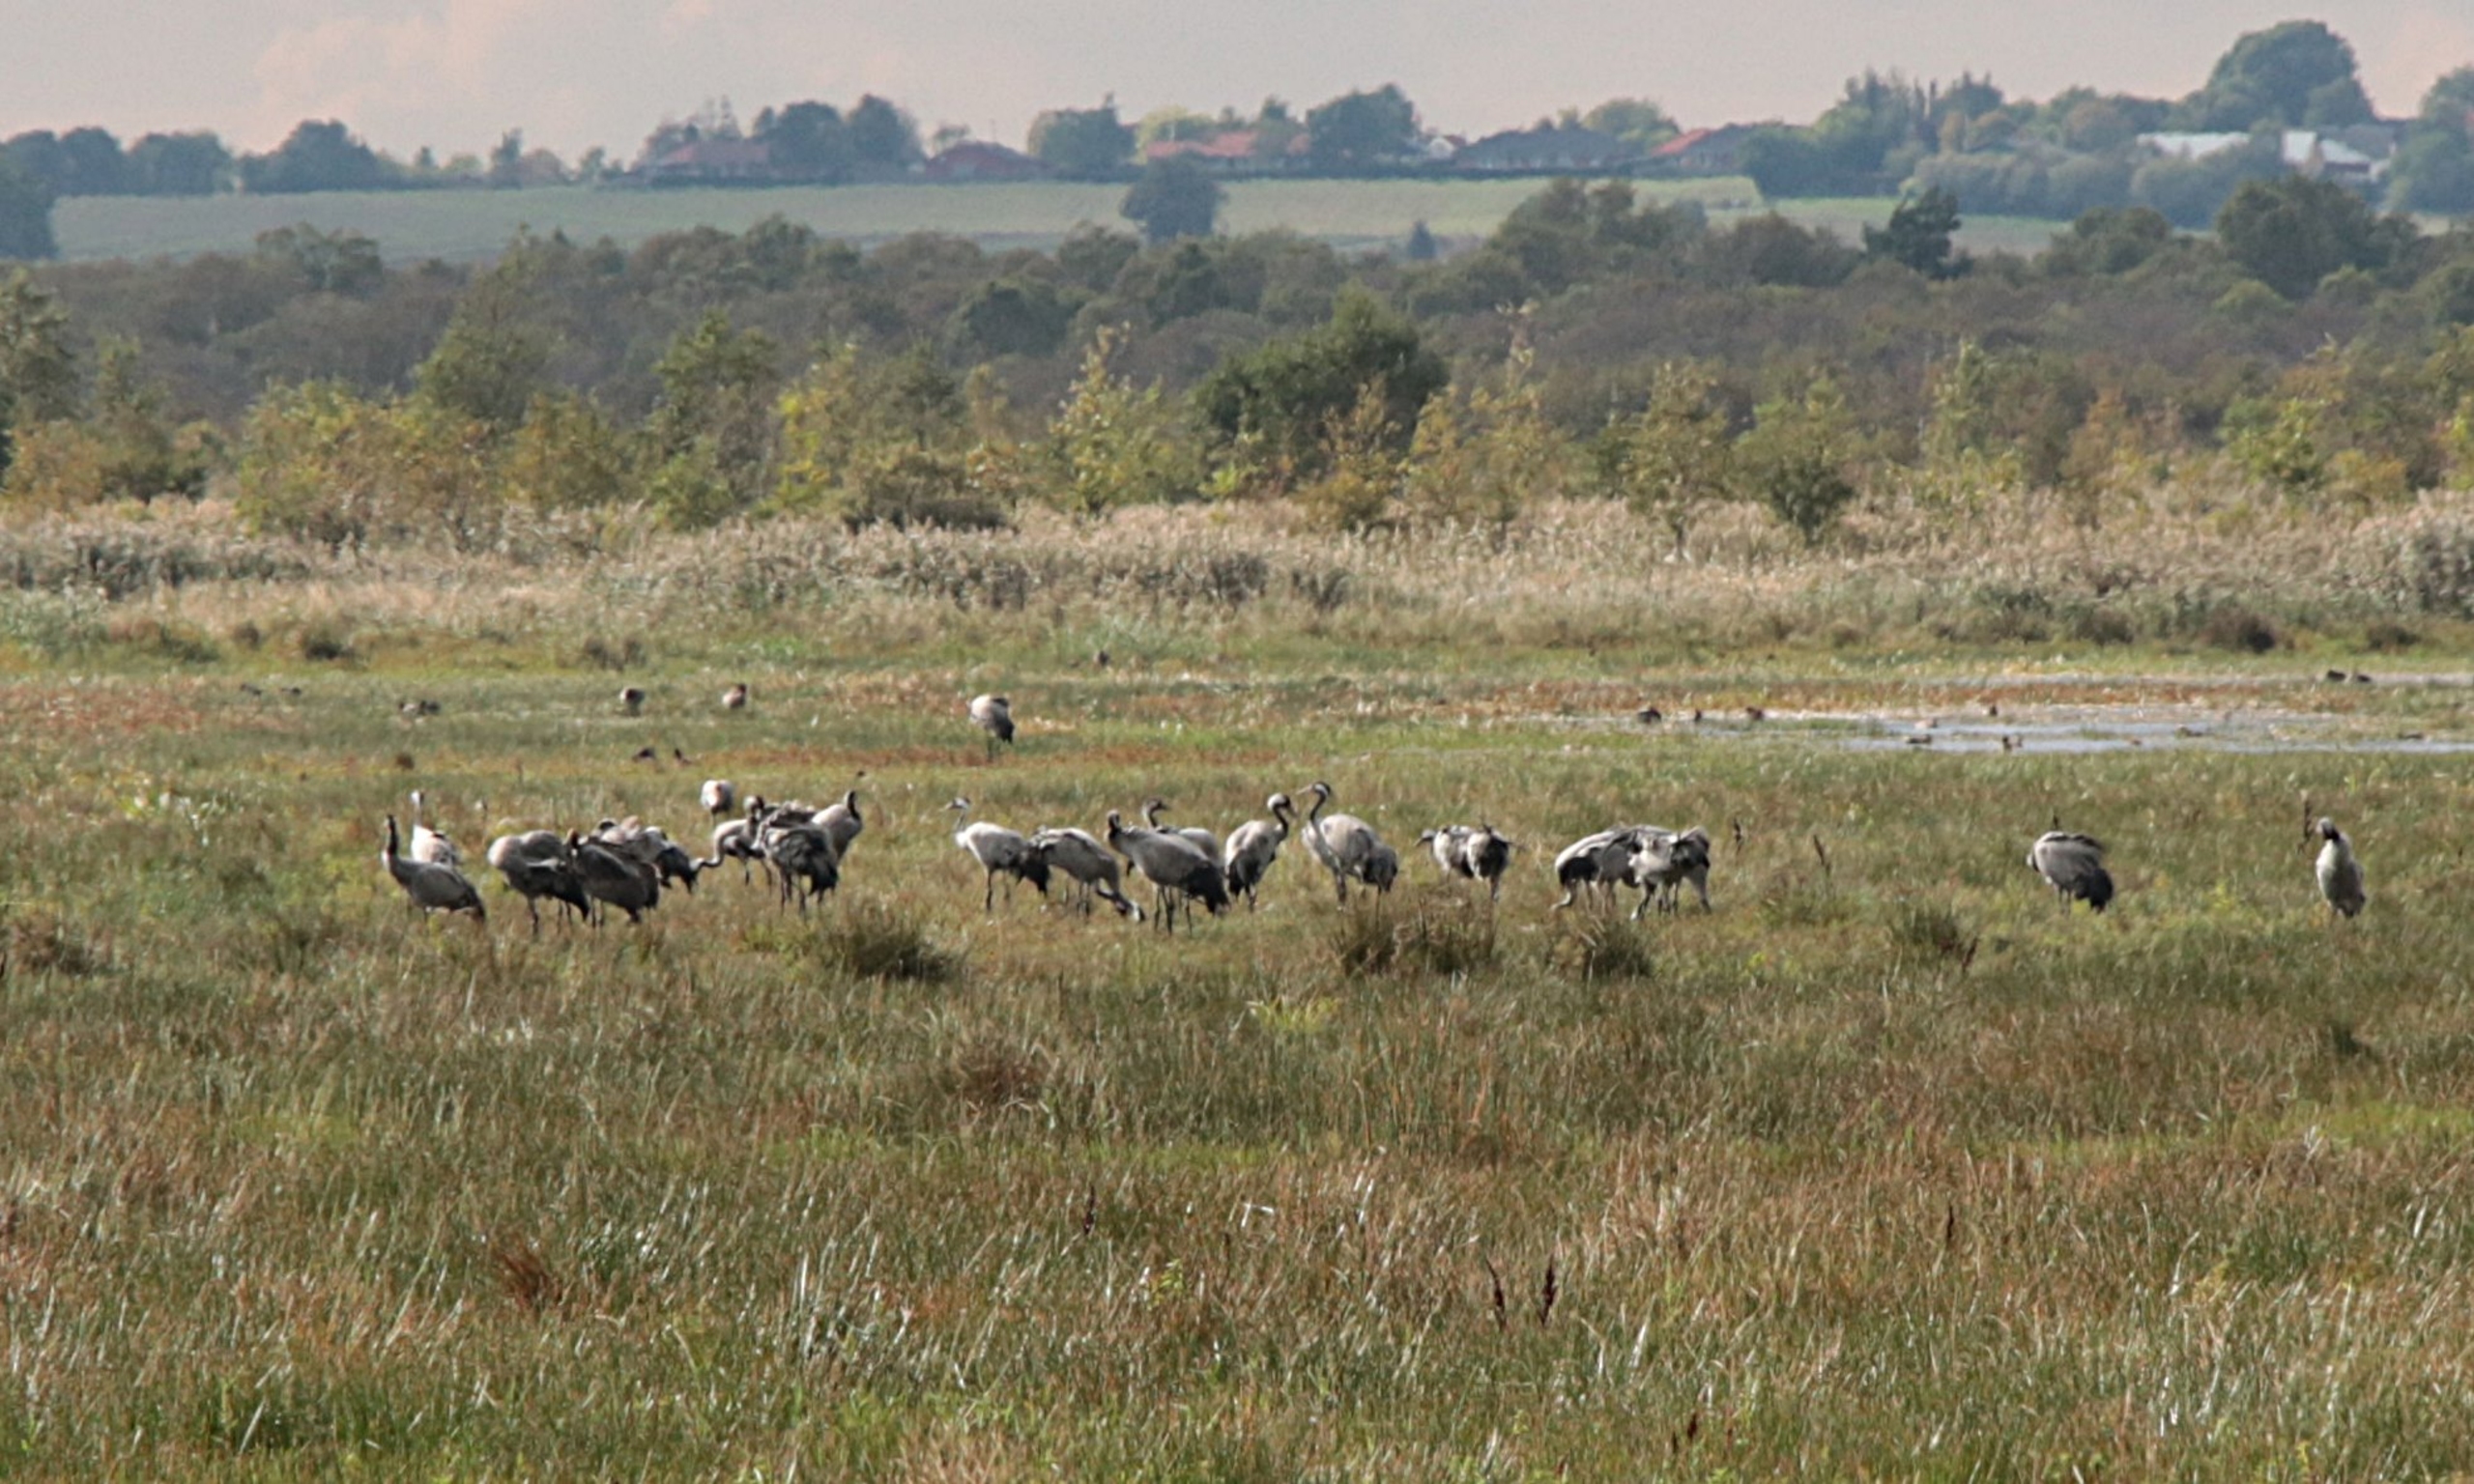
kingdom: Animalia
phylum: Chordata
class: Aves
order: Gruiformes
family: Gruidae
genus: Grus
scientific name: Grus grus
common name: Trane
